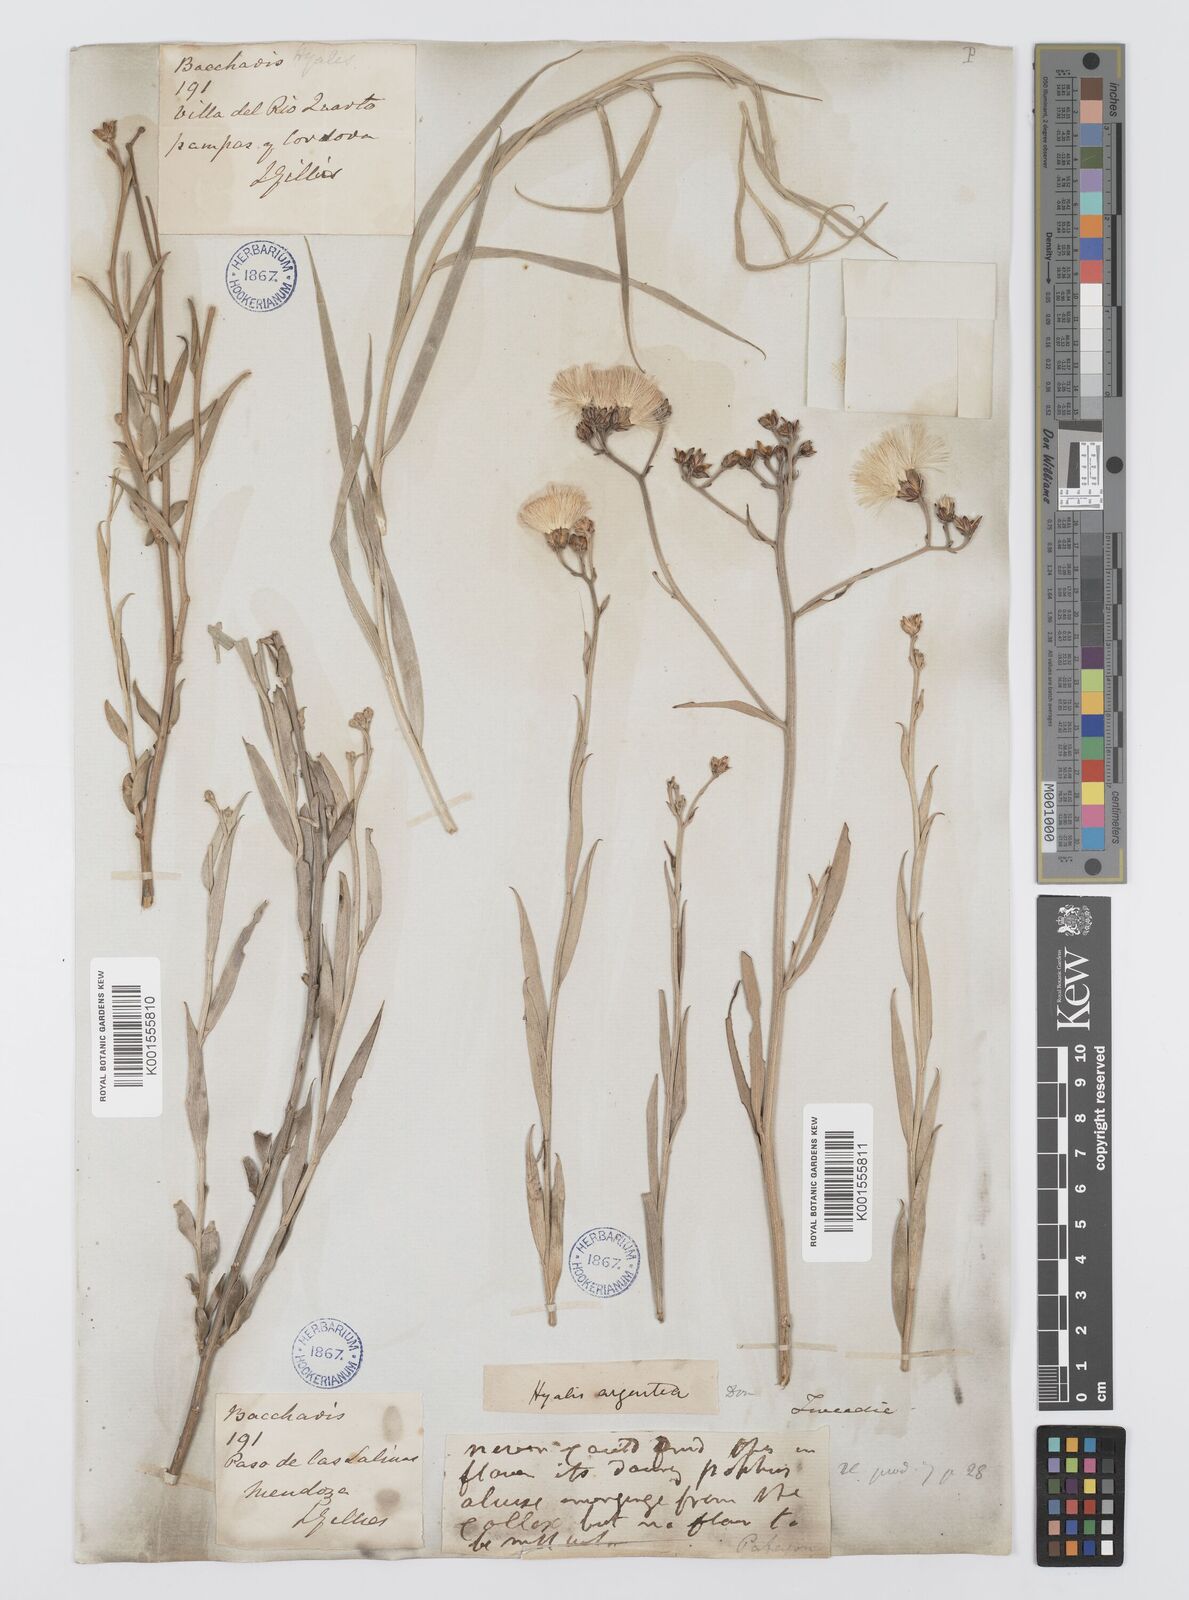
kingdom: Plantae
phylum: Tracheophyta
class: Magnoliopsida
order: Asterales
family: Asteraceae
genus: Hyalis
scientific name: Hyalis argentea
